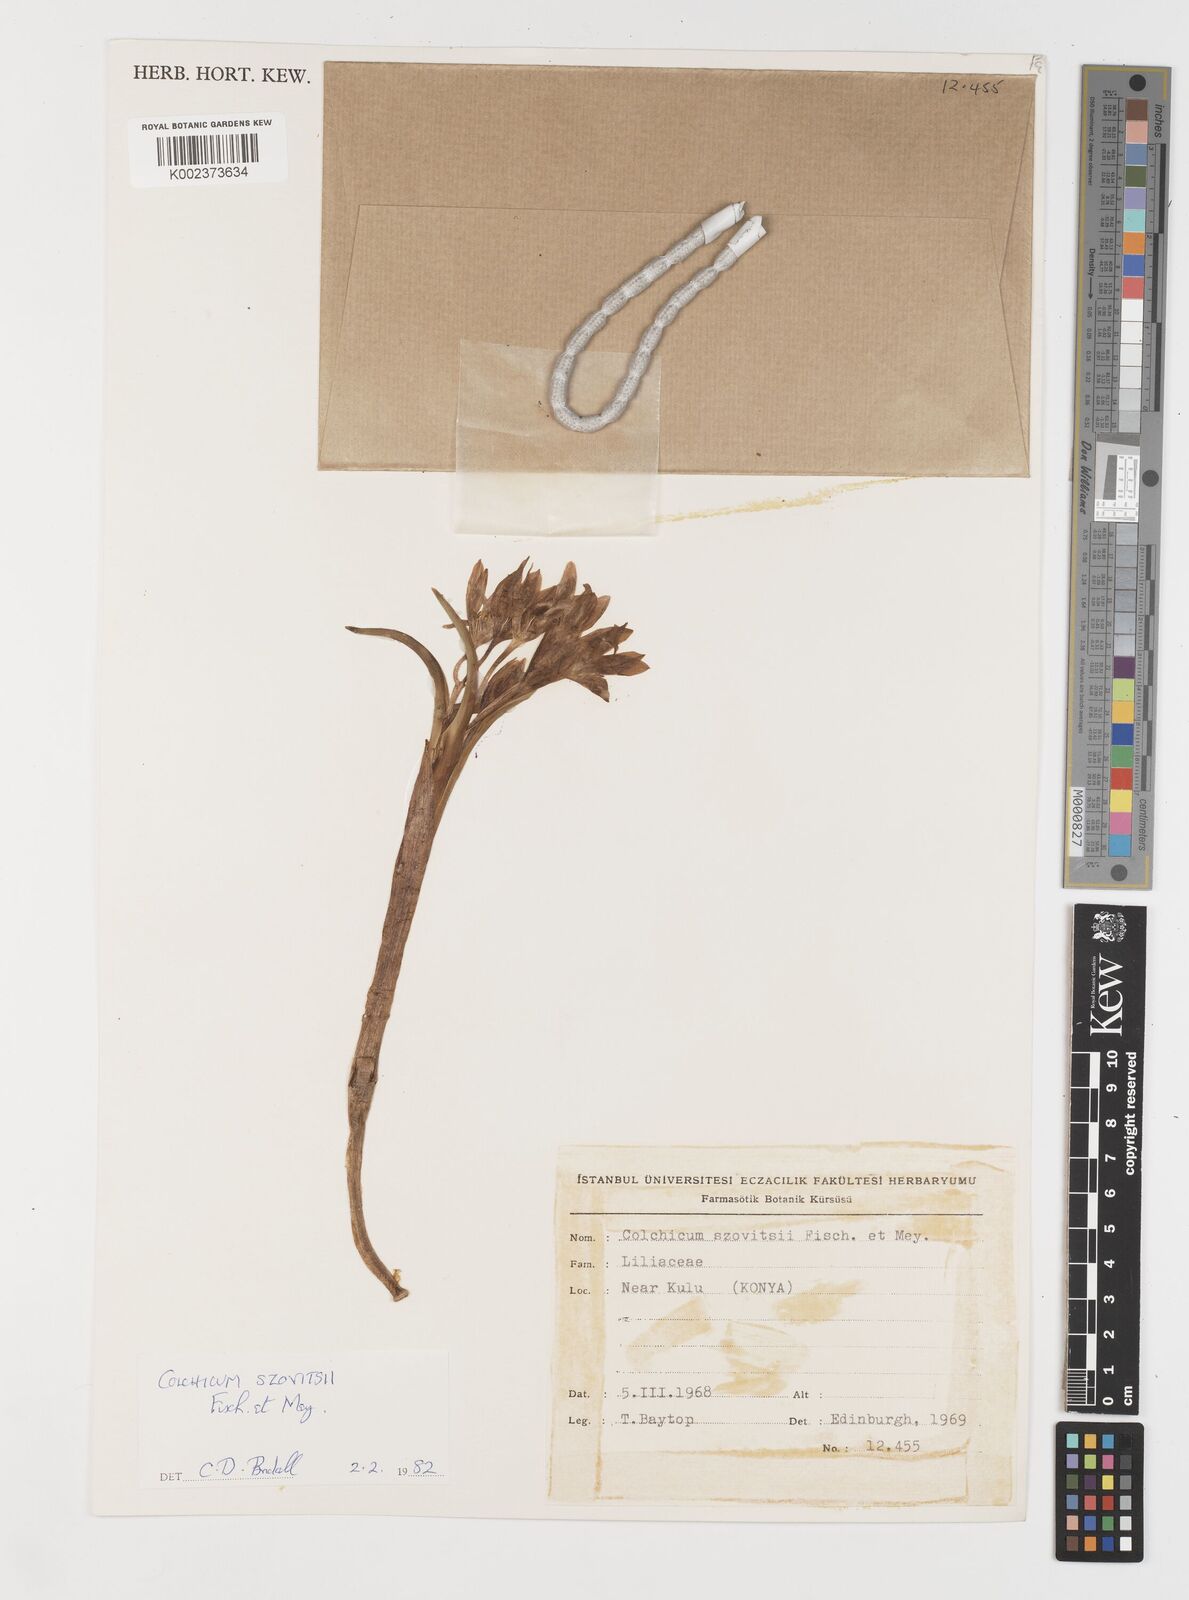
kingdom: Plantae
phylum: Tracheophyta
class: Liliopsida
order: Liliales
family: Colchicaceae
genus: Colchicum
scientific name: Colchicum szovitsii
